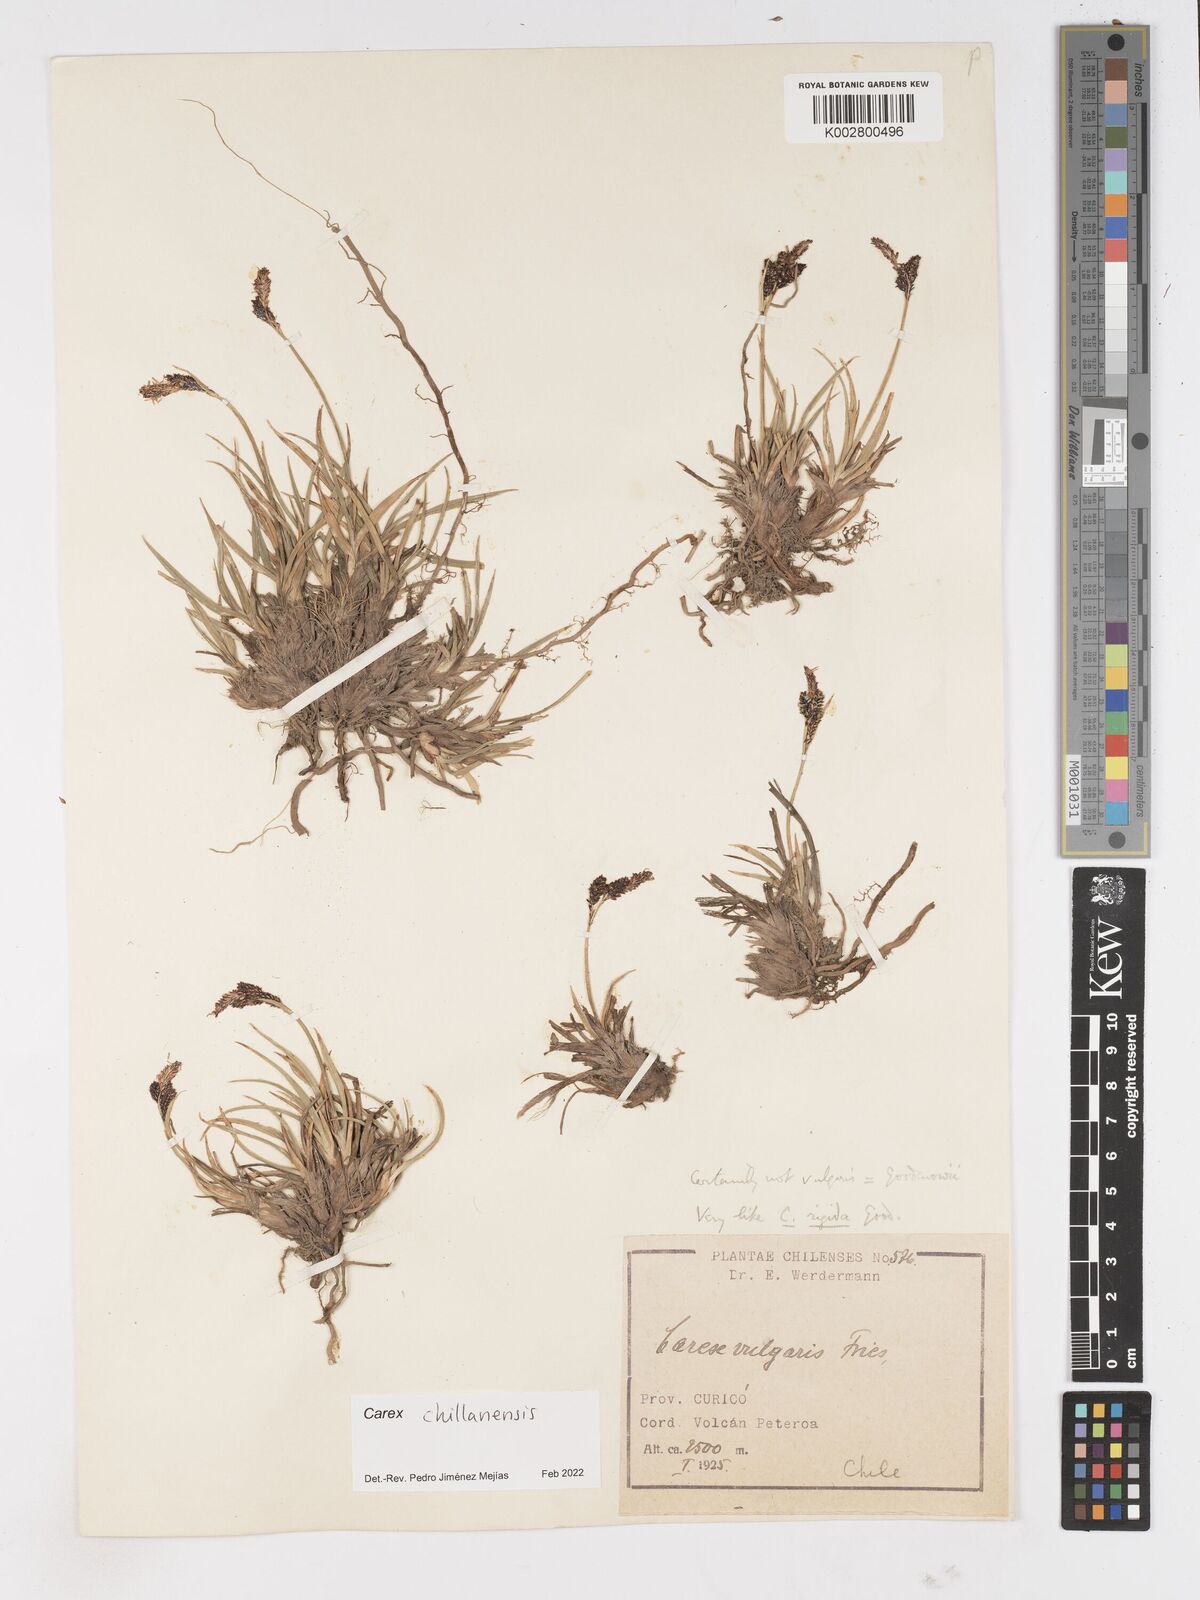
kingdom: Plantae
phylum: Tracheophyta
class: Liliopsida
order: Poales
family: Cyperaceae
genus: Carex
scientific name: Carex nigra
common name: Common sedge
